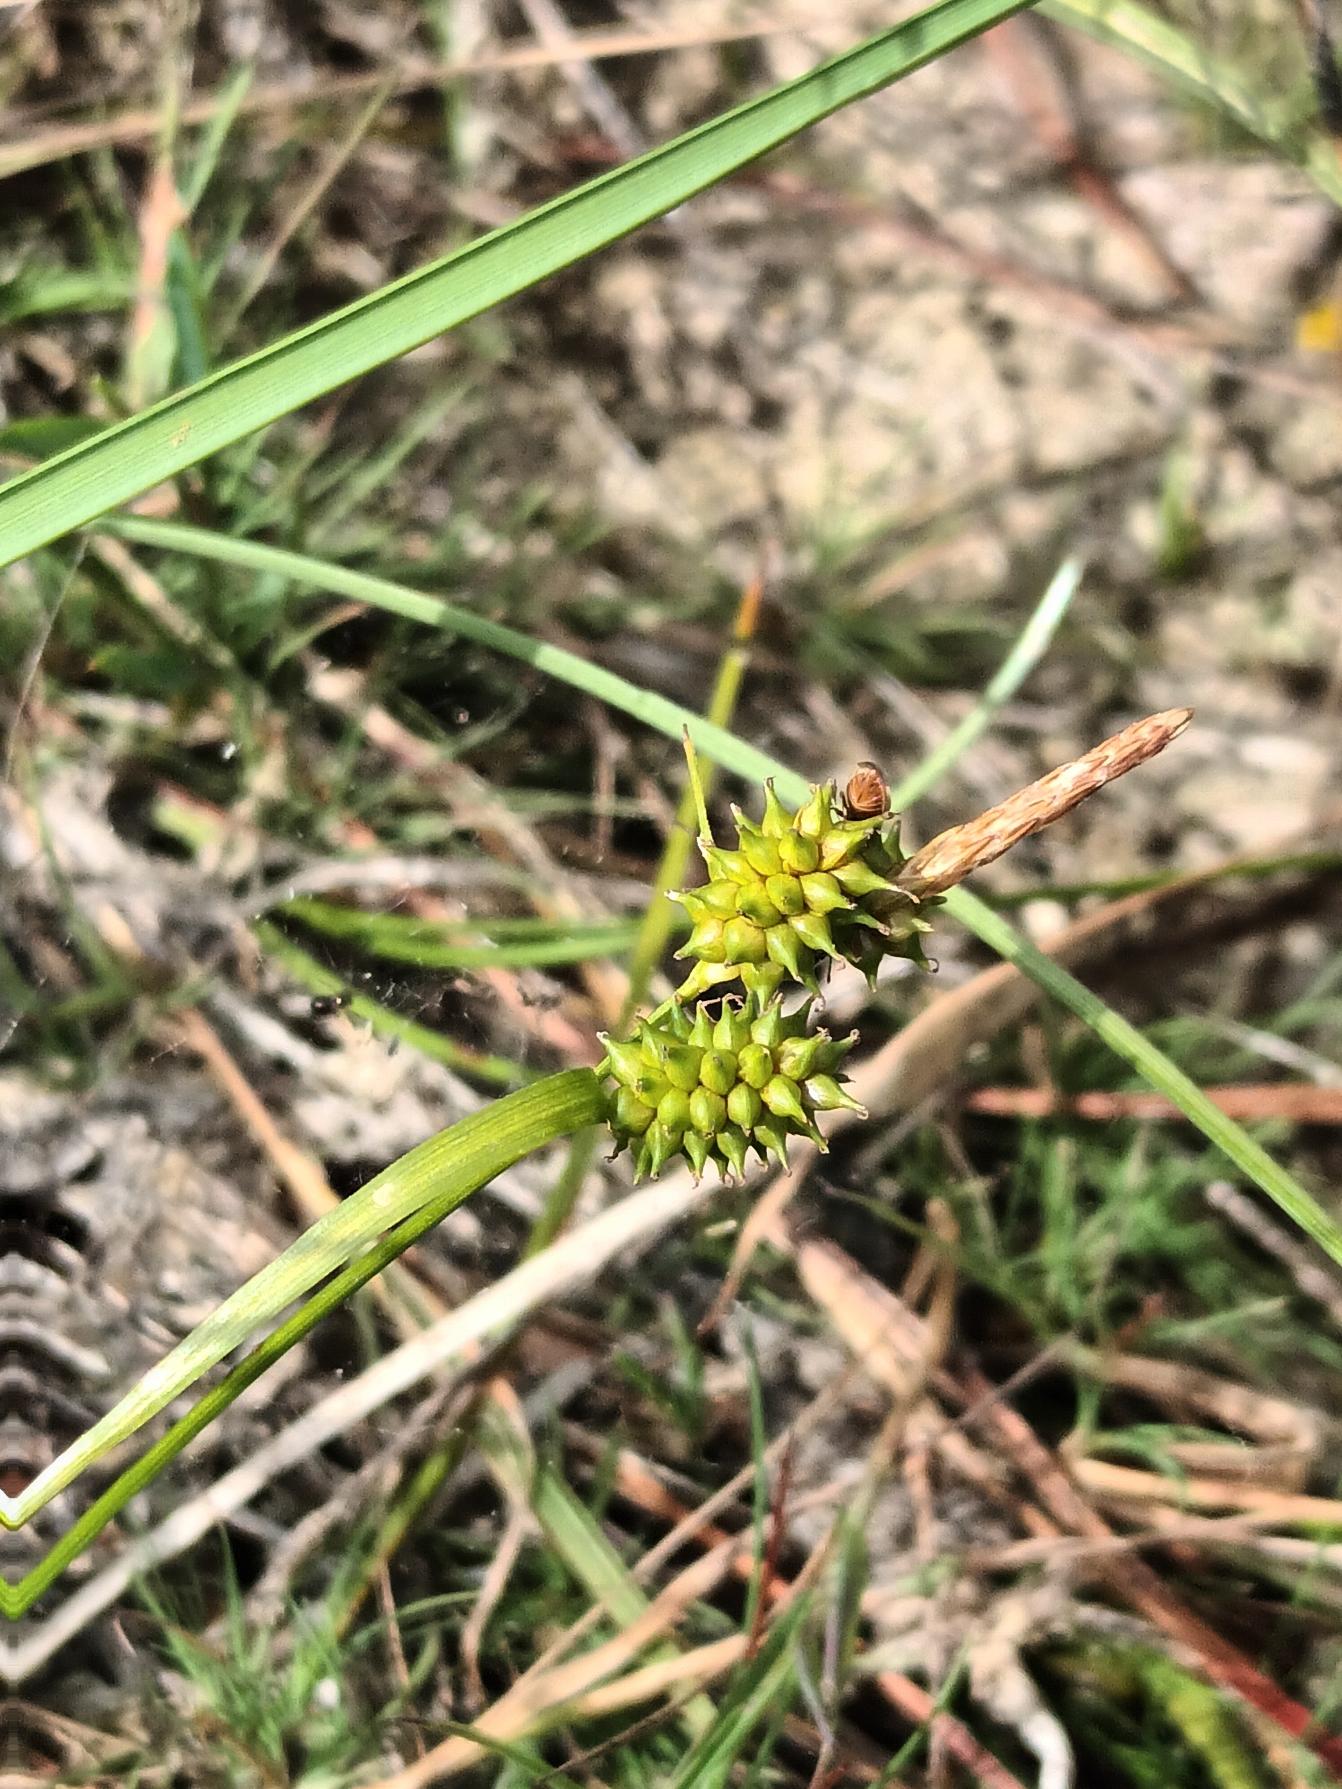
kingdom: Plantae
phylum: Tracheophyta
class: Liliopsida
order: Poales
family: Cyperaceae
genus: Carex
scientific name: Carex oederi
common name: Dværg-star (varietet)
